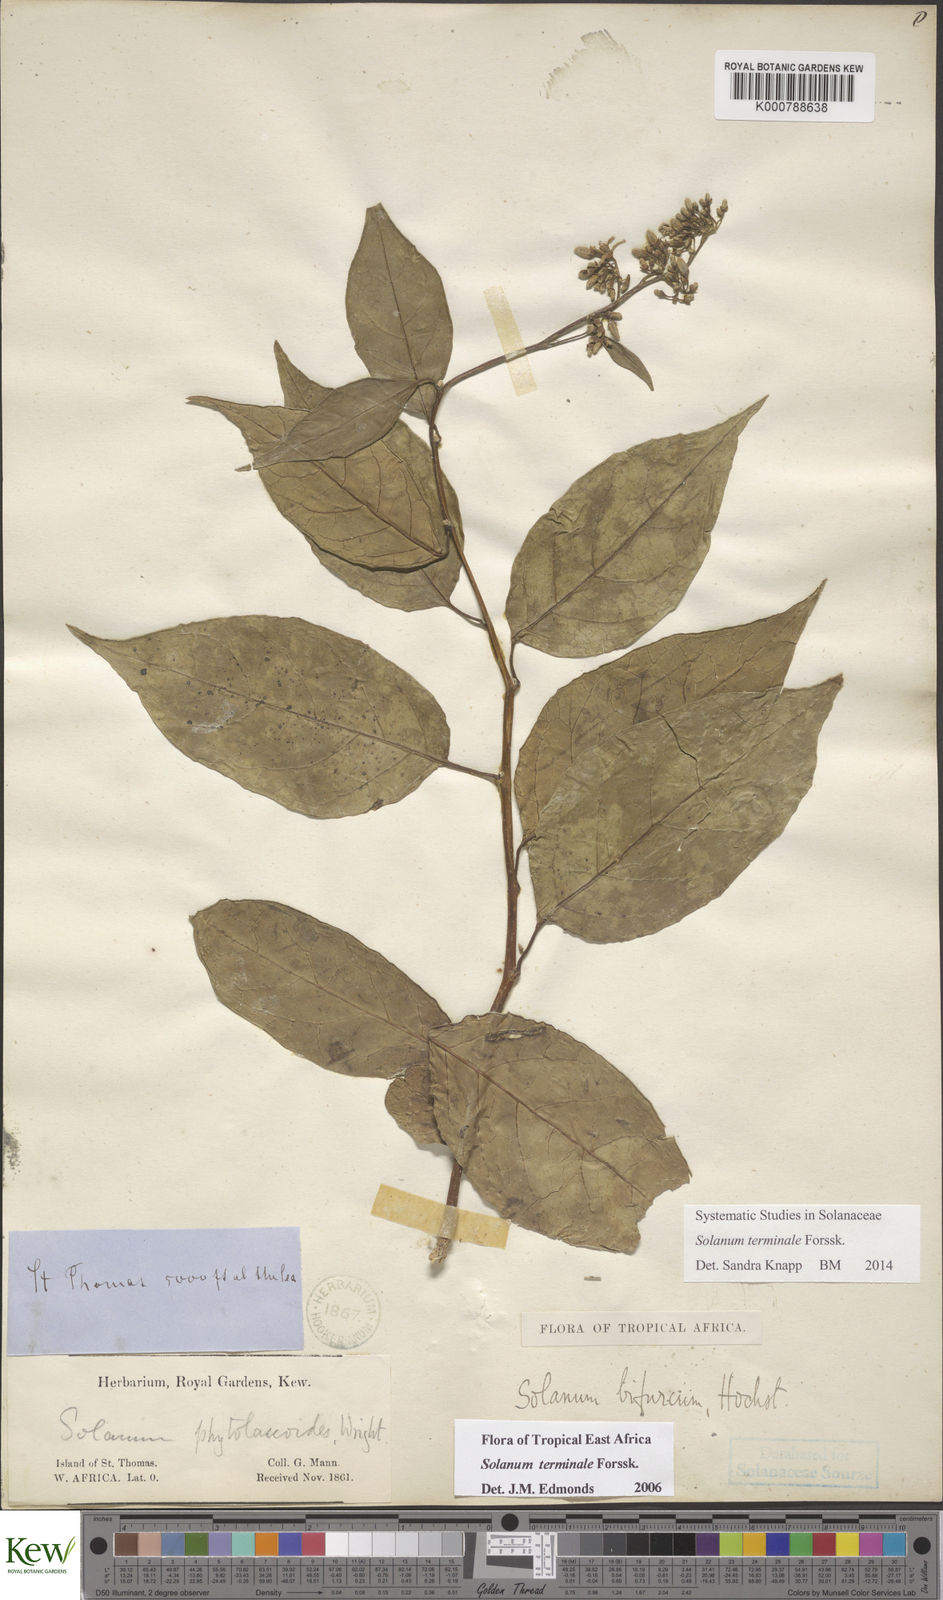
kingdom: Plantae
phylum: Tracheophyta
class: Magnoliopsida
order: Solanales
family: Solanaceae
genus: Solanum
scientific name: Solanum terminale
